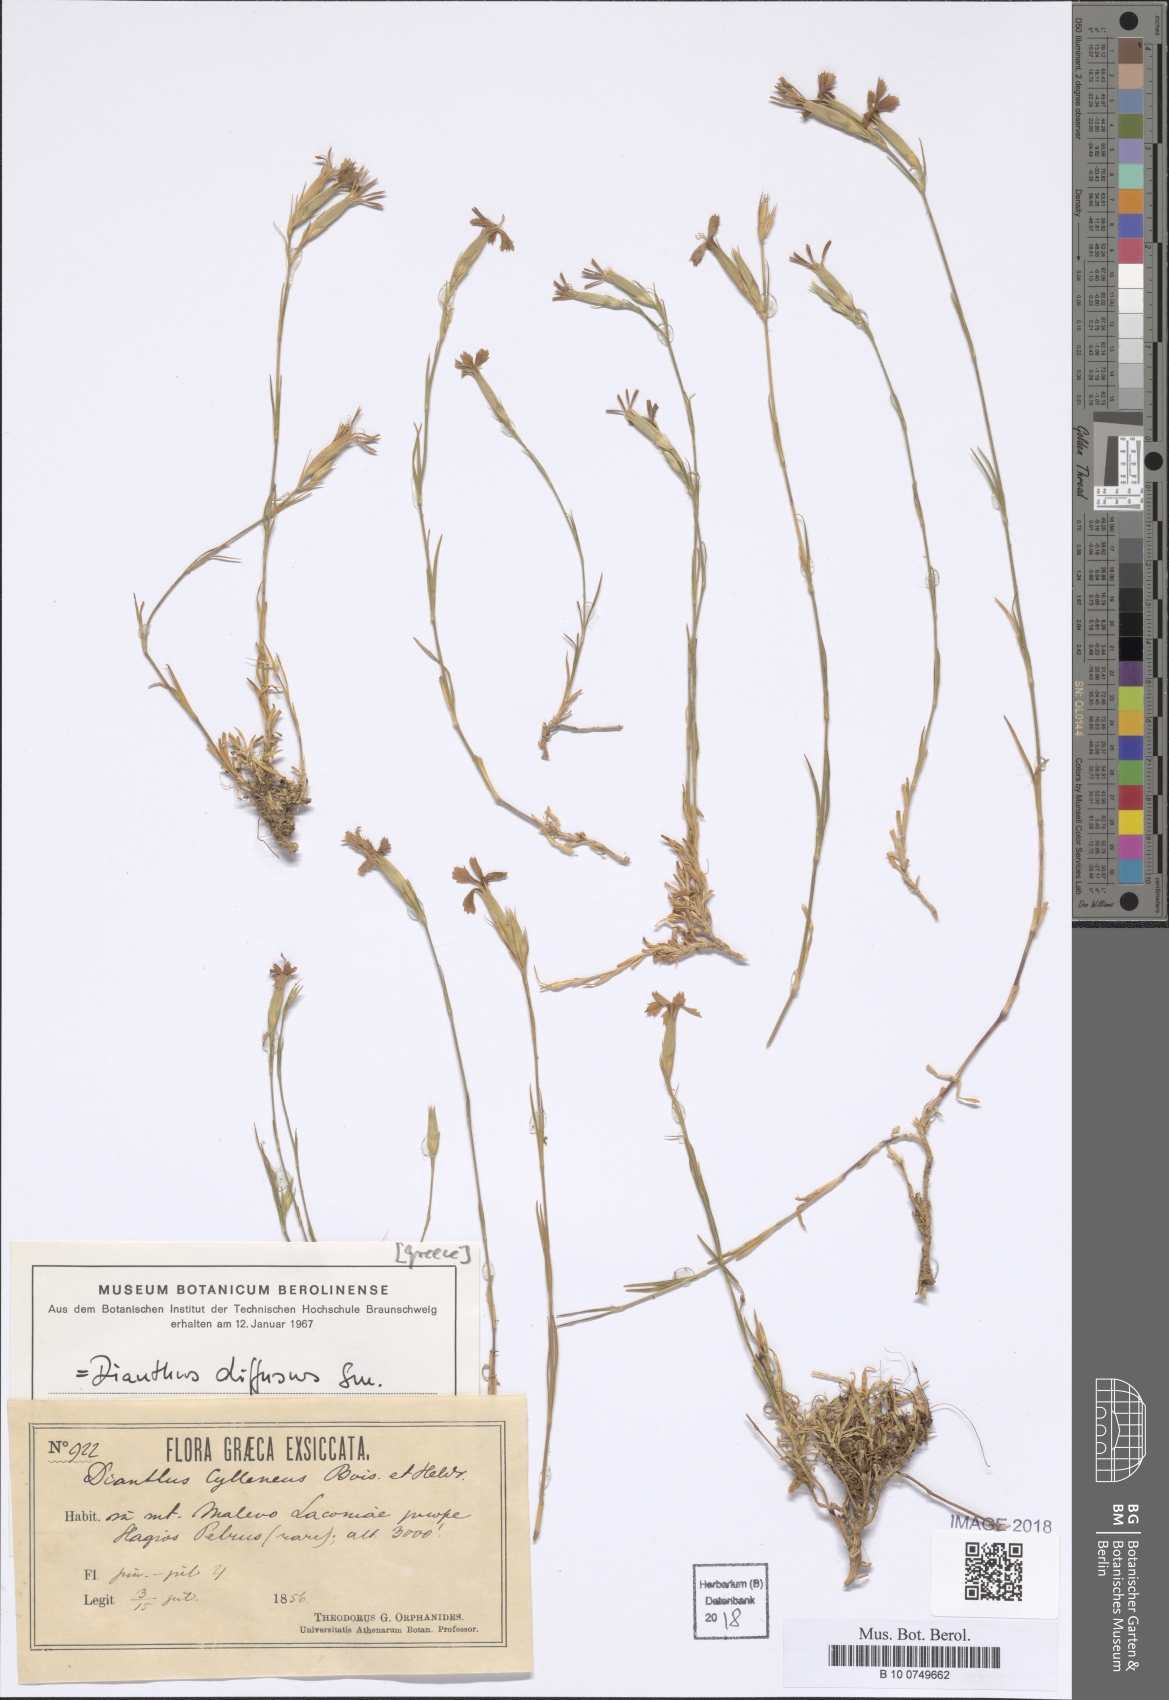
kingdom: Plantae
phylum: Tracheophyta
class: Magnoliopsida
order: Caryophyllales
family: Caryophyllaceae
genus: Dianthus
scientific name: Dianthus diffusus
